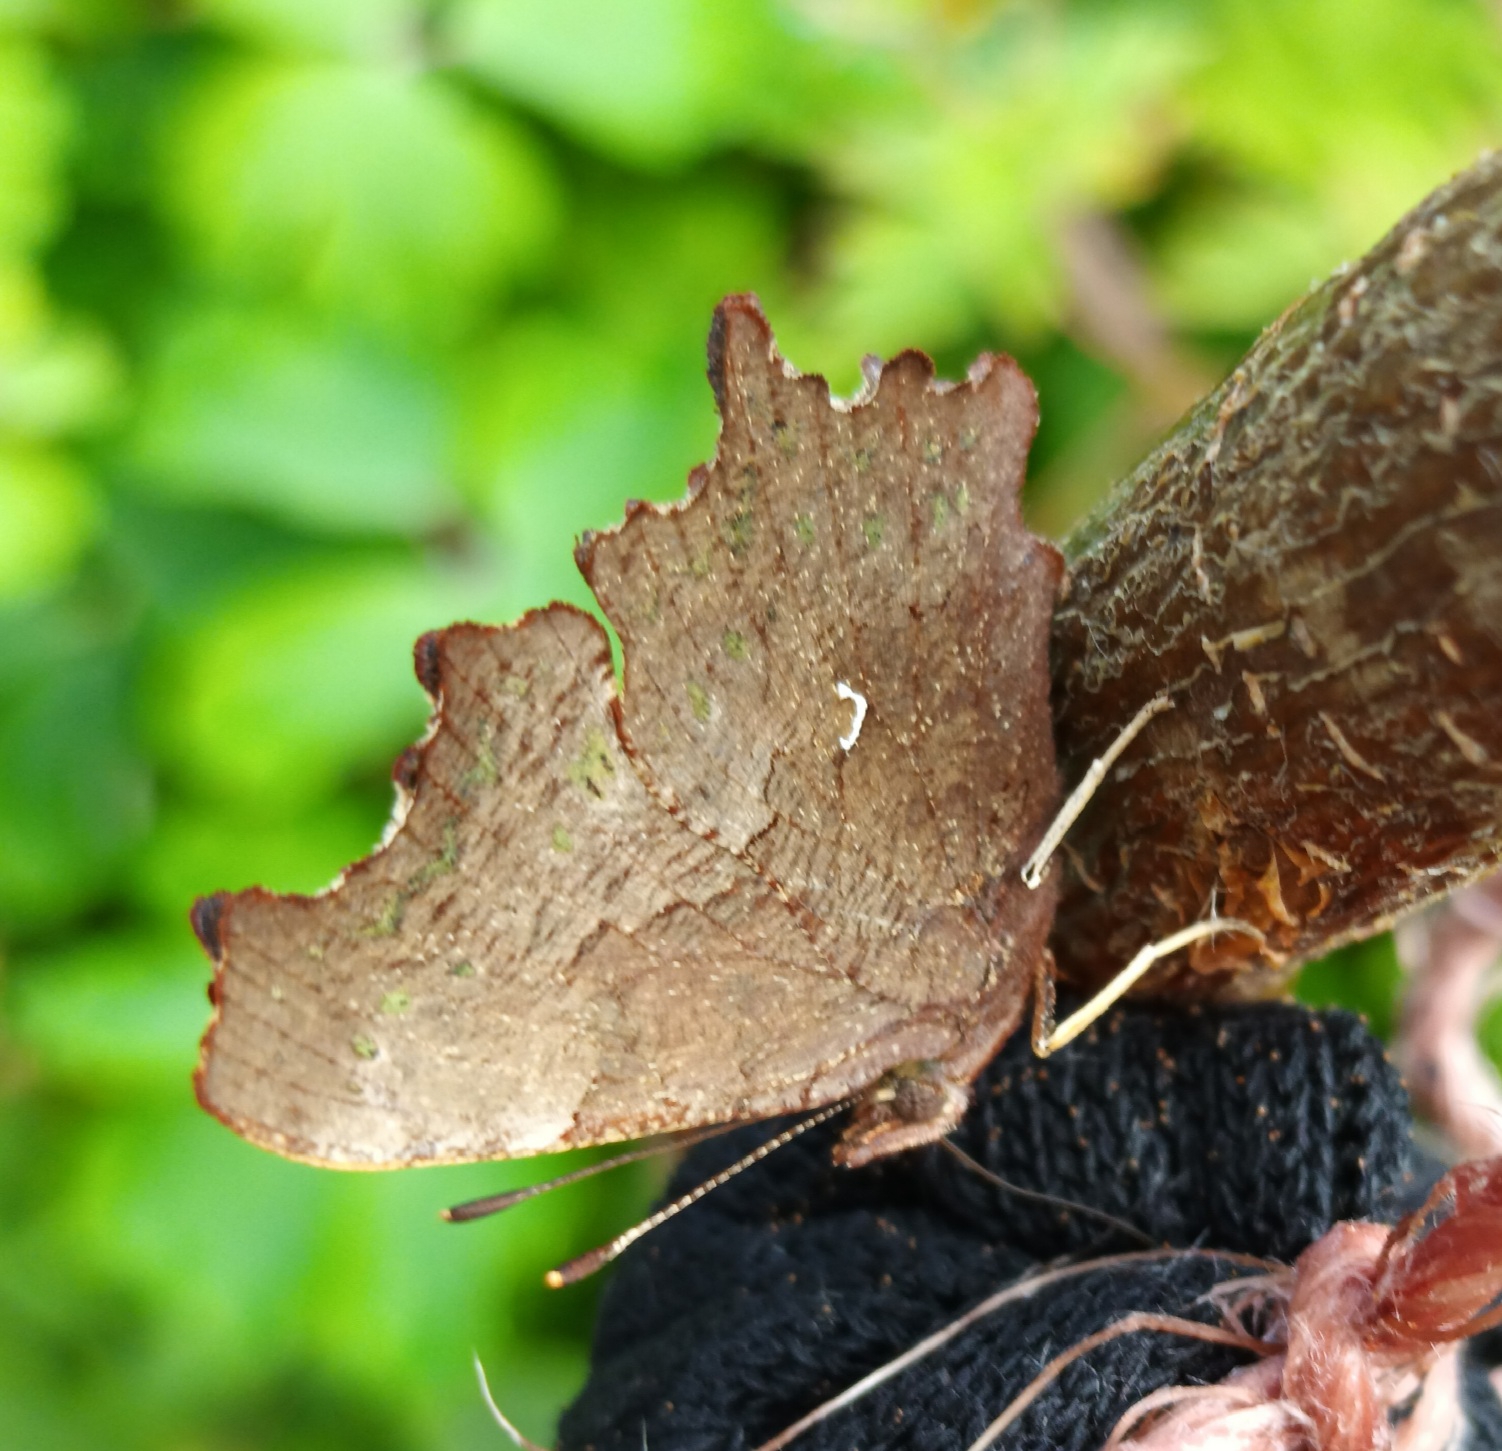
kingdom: Animalia
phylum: Arthropoda
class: Insecta
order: Lepidoptera
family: Nymphalidae
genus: Polygonia
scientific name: Polygonia c-album
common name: Det hvide C
